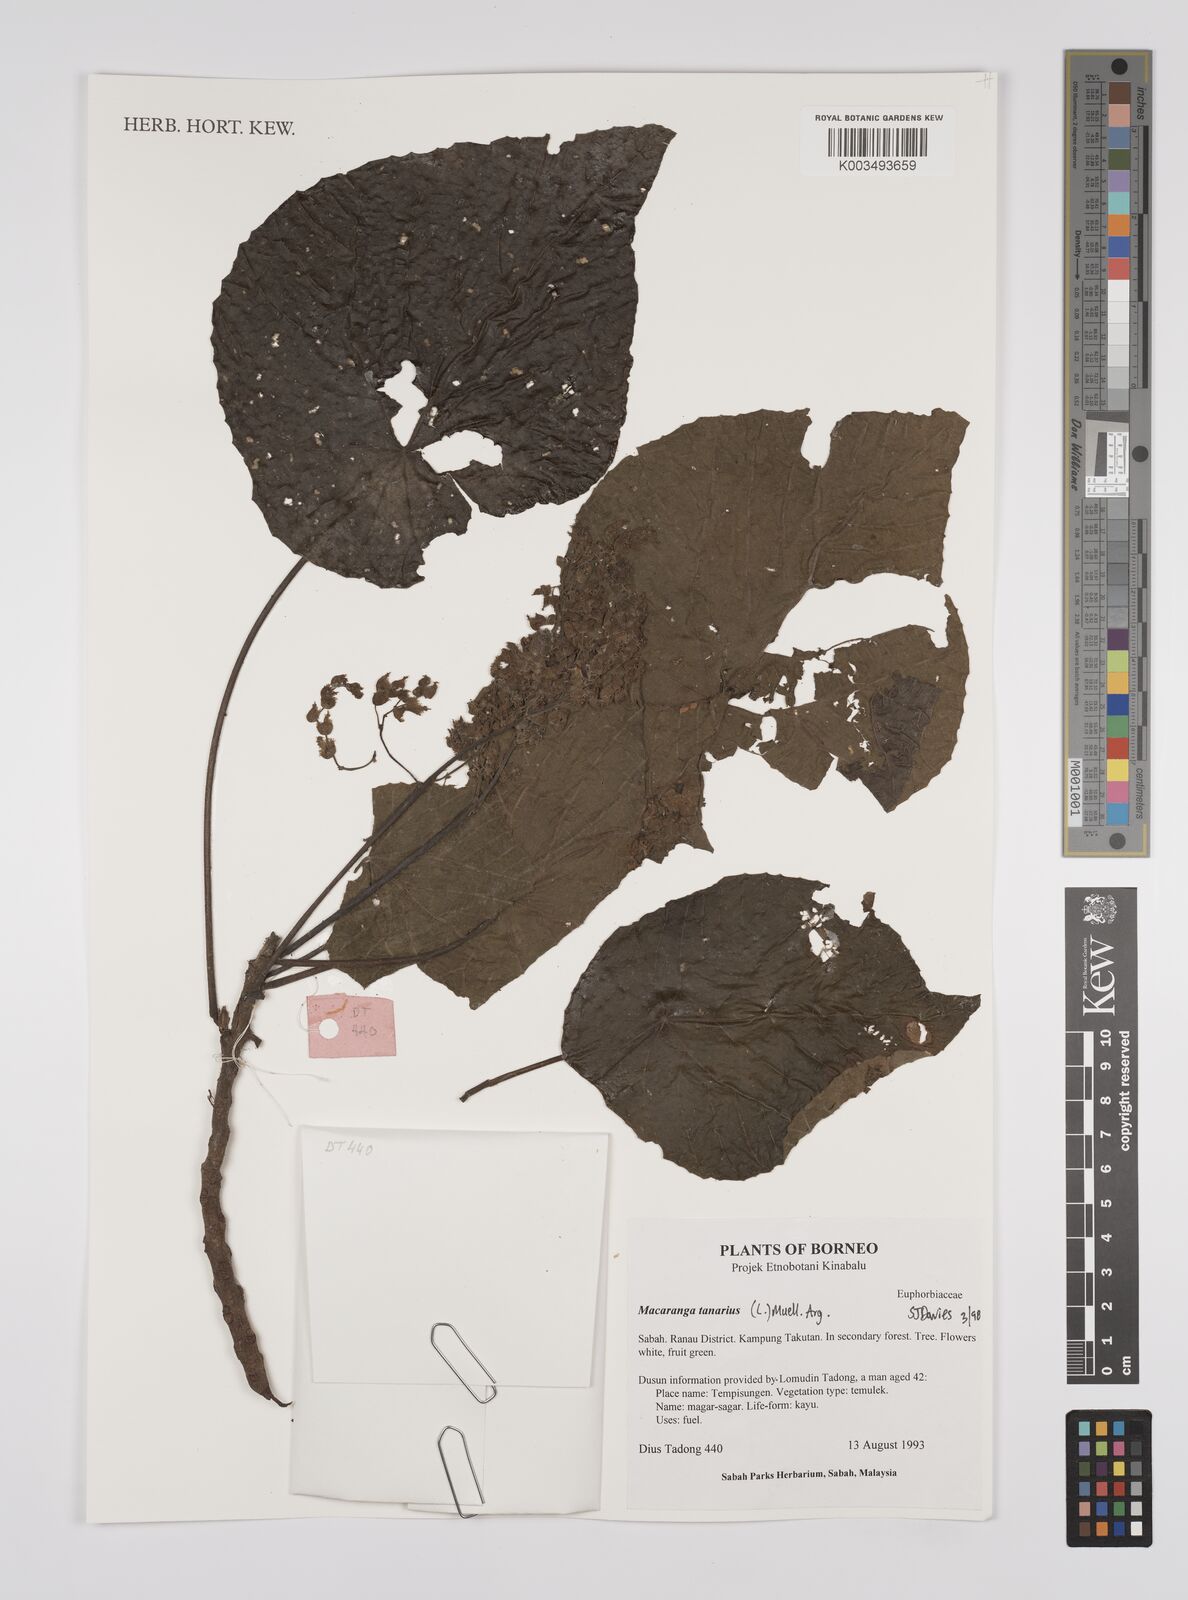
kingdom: Plantae
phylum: Tracheophyta
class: Magnoliopsida
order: Malpighiales
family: Euphorbiaceae
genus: Macaranga
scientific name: Macaranga tanarius
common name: Parasol leaf tree
